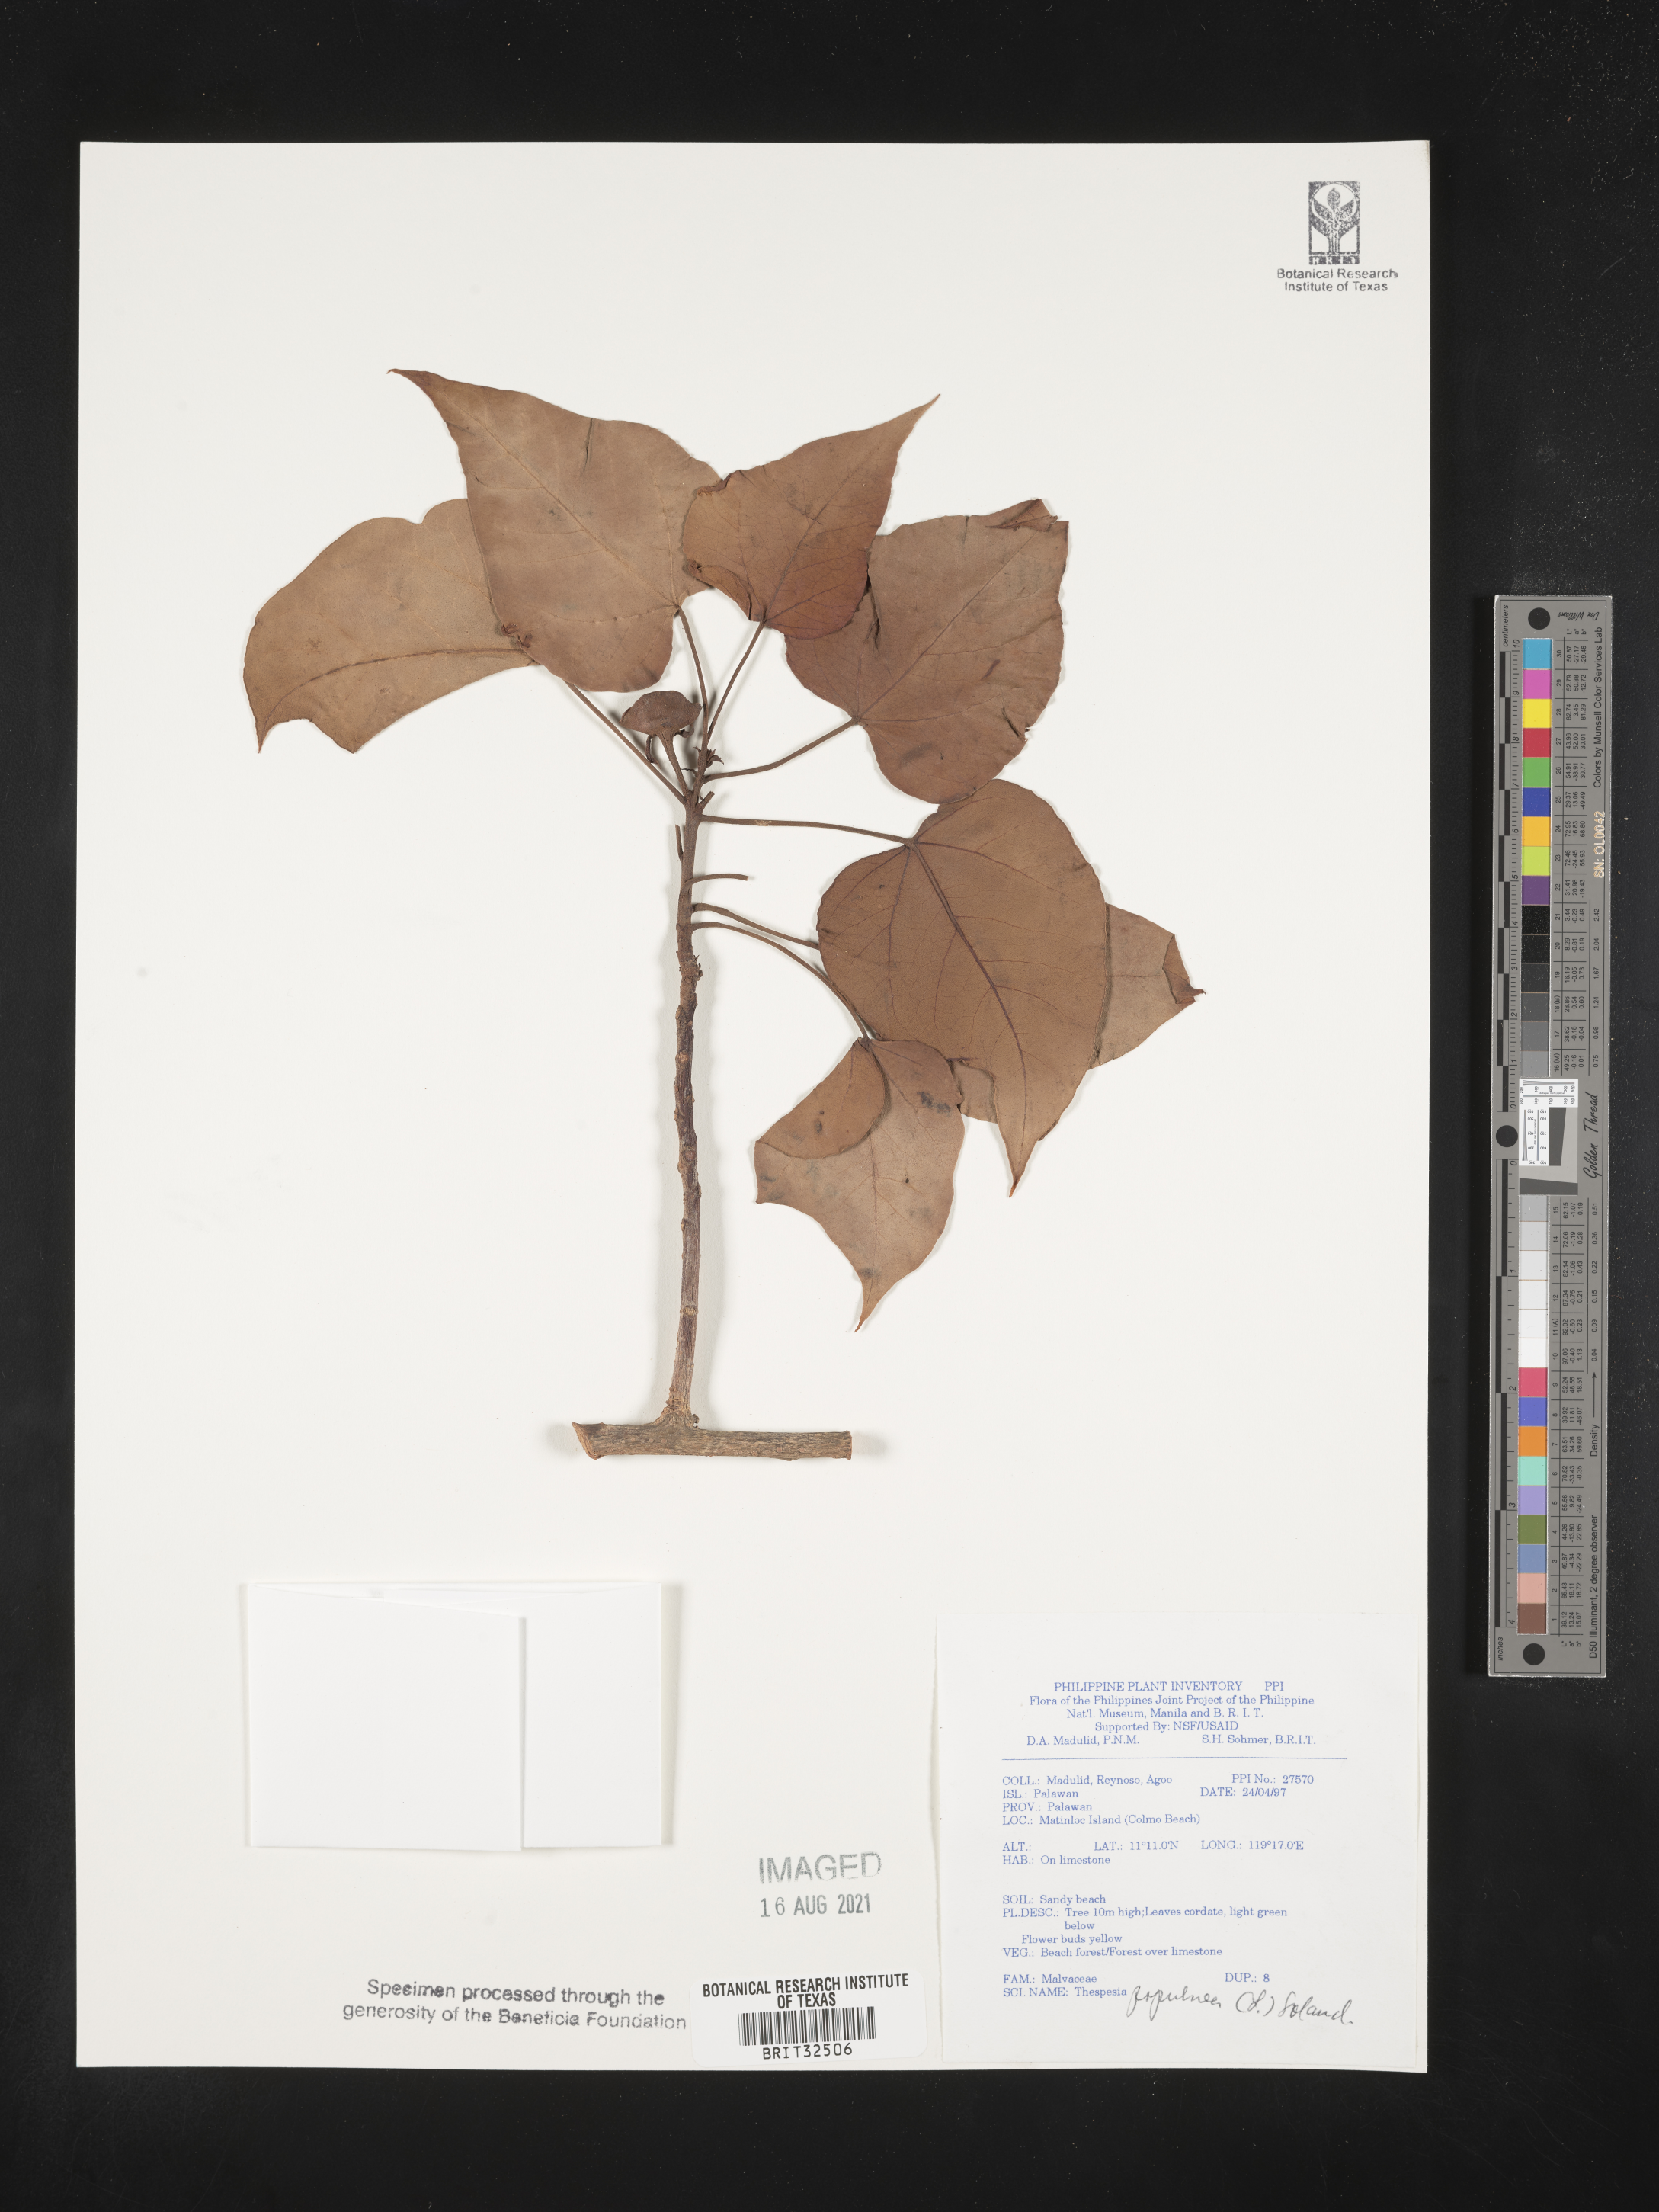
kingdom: Plantae
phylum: Tracheophyta
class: Magnoliopsida
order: Malvales
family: Malvaceae
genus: Thespesia
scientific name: Thespesia populnea
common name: Seaside mahoe
